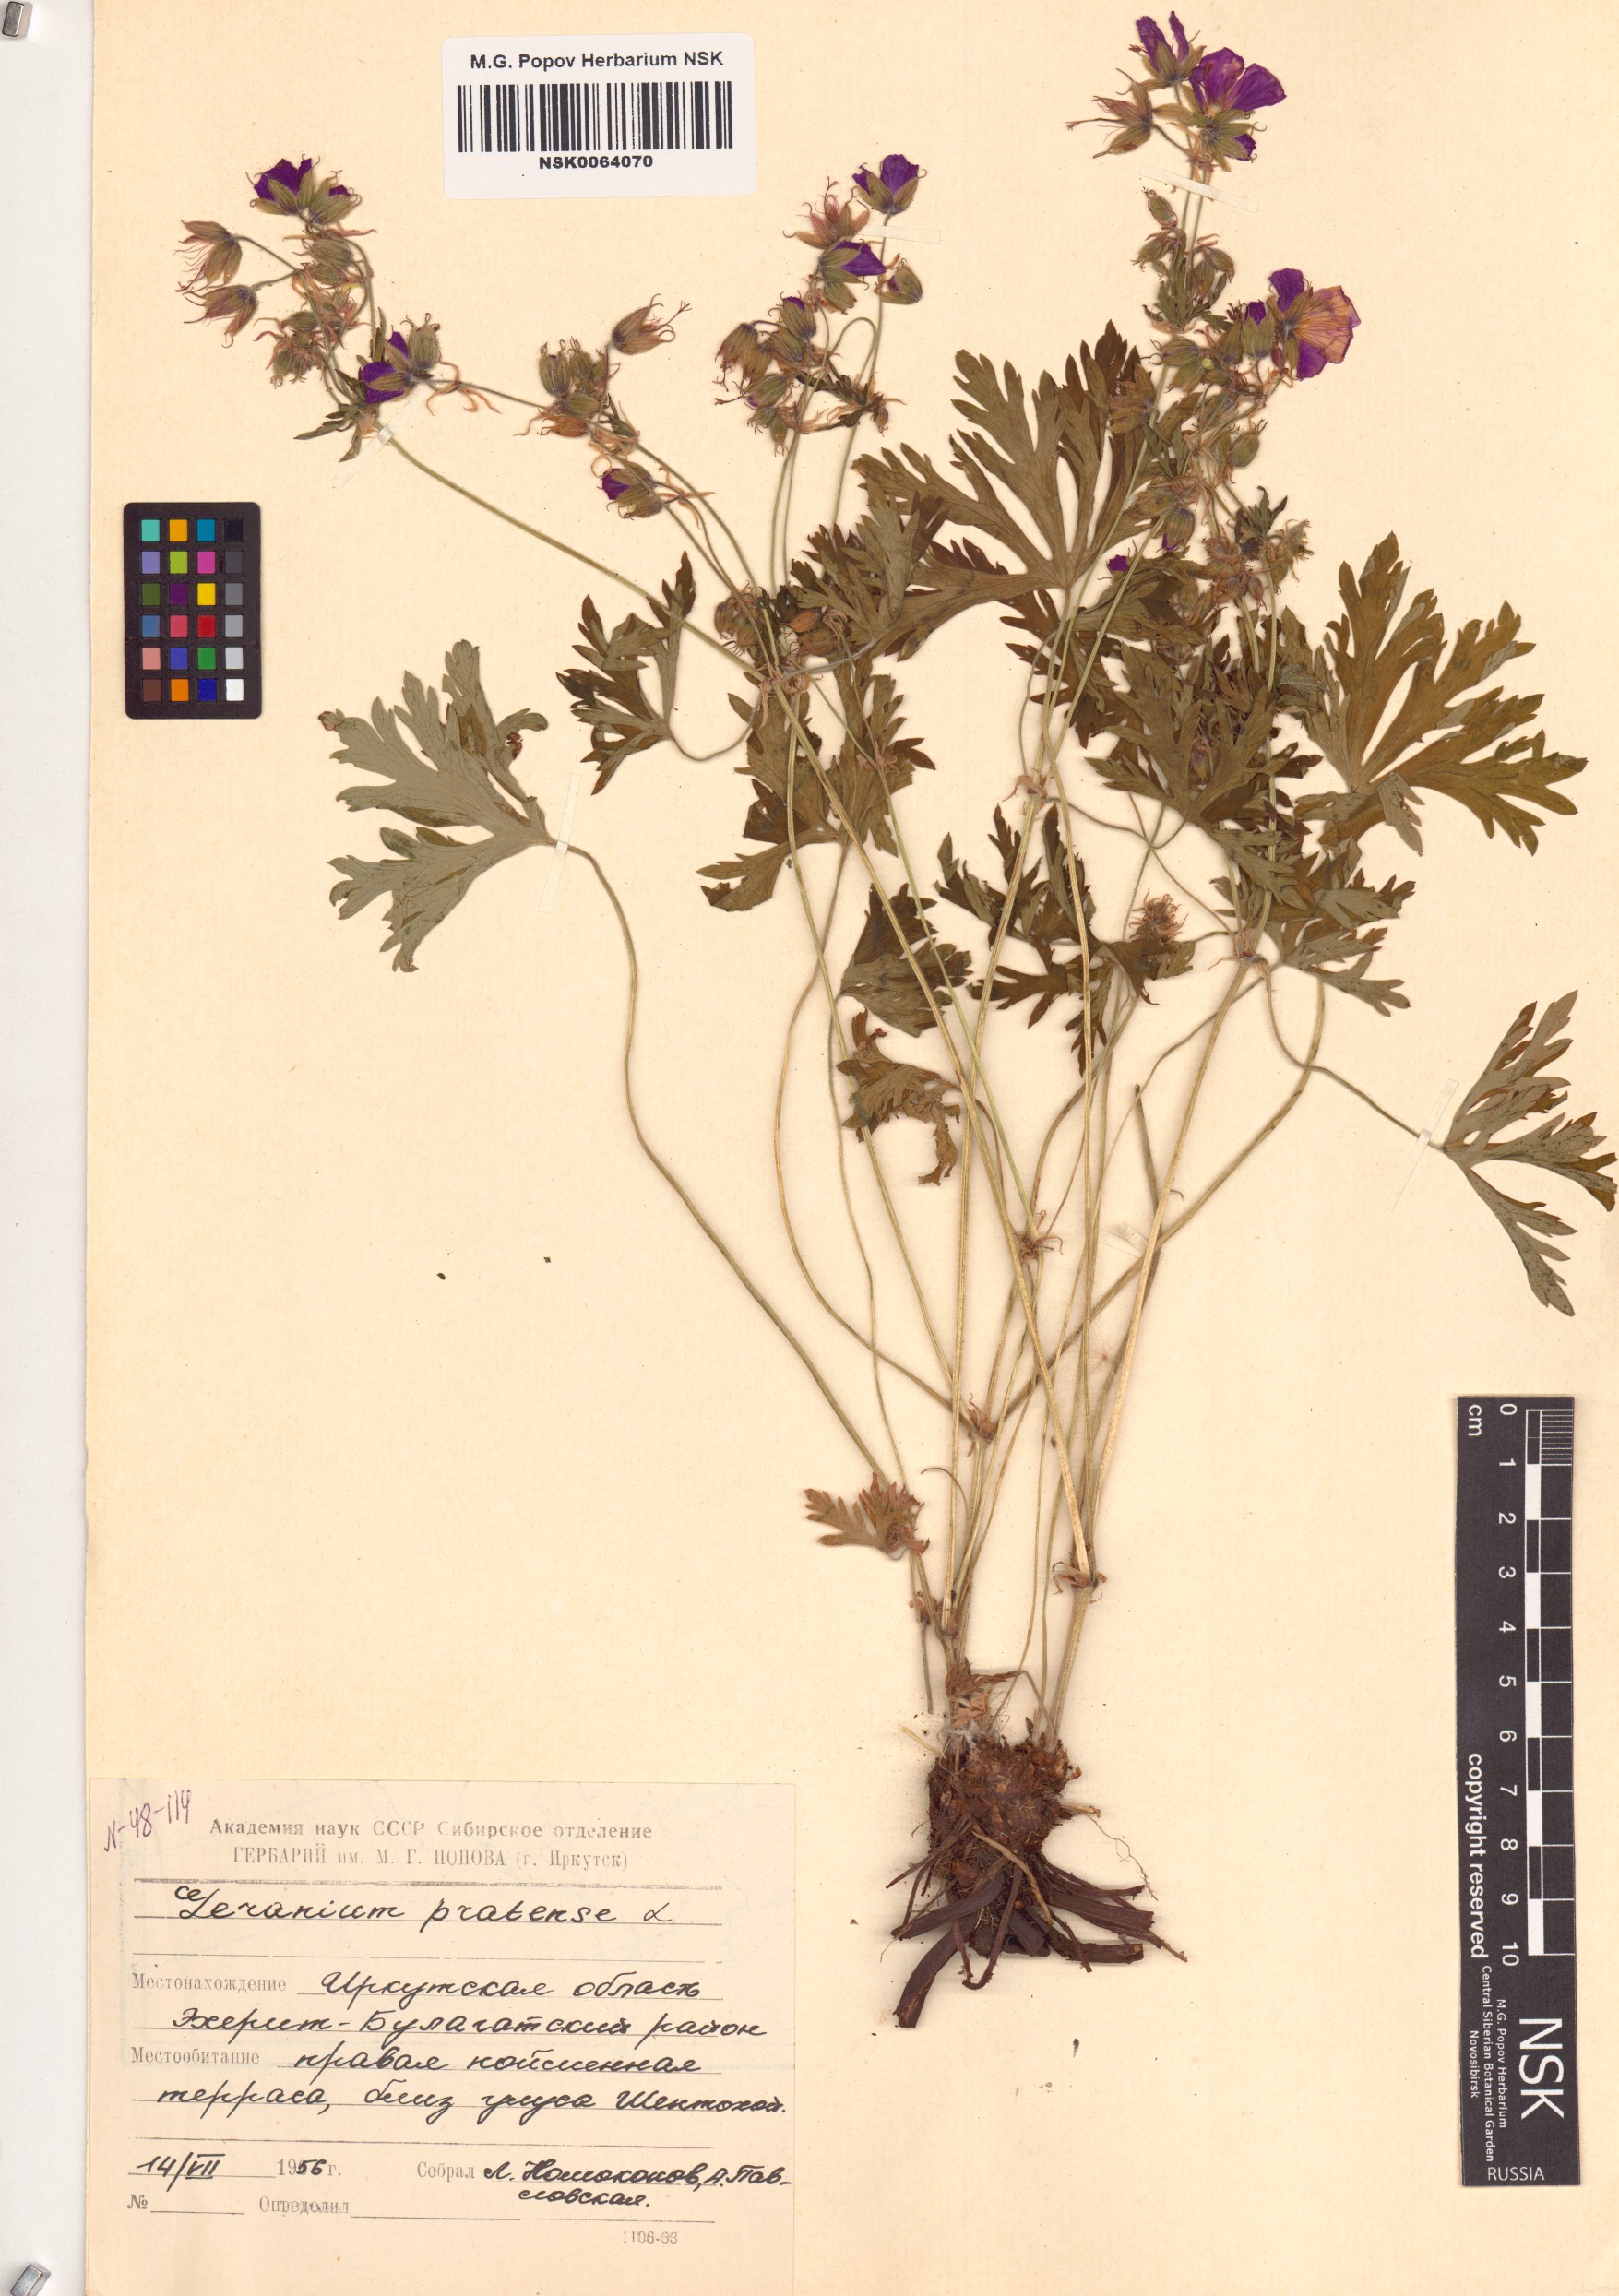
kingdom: Plantae
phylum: Tracheophyta
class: Magnoliopsida
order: Geraniales
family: Geraniaceae
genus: Geranium
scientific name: Geranium pratense
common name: Meadow crane's-bill
